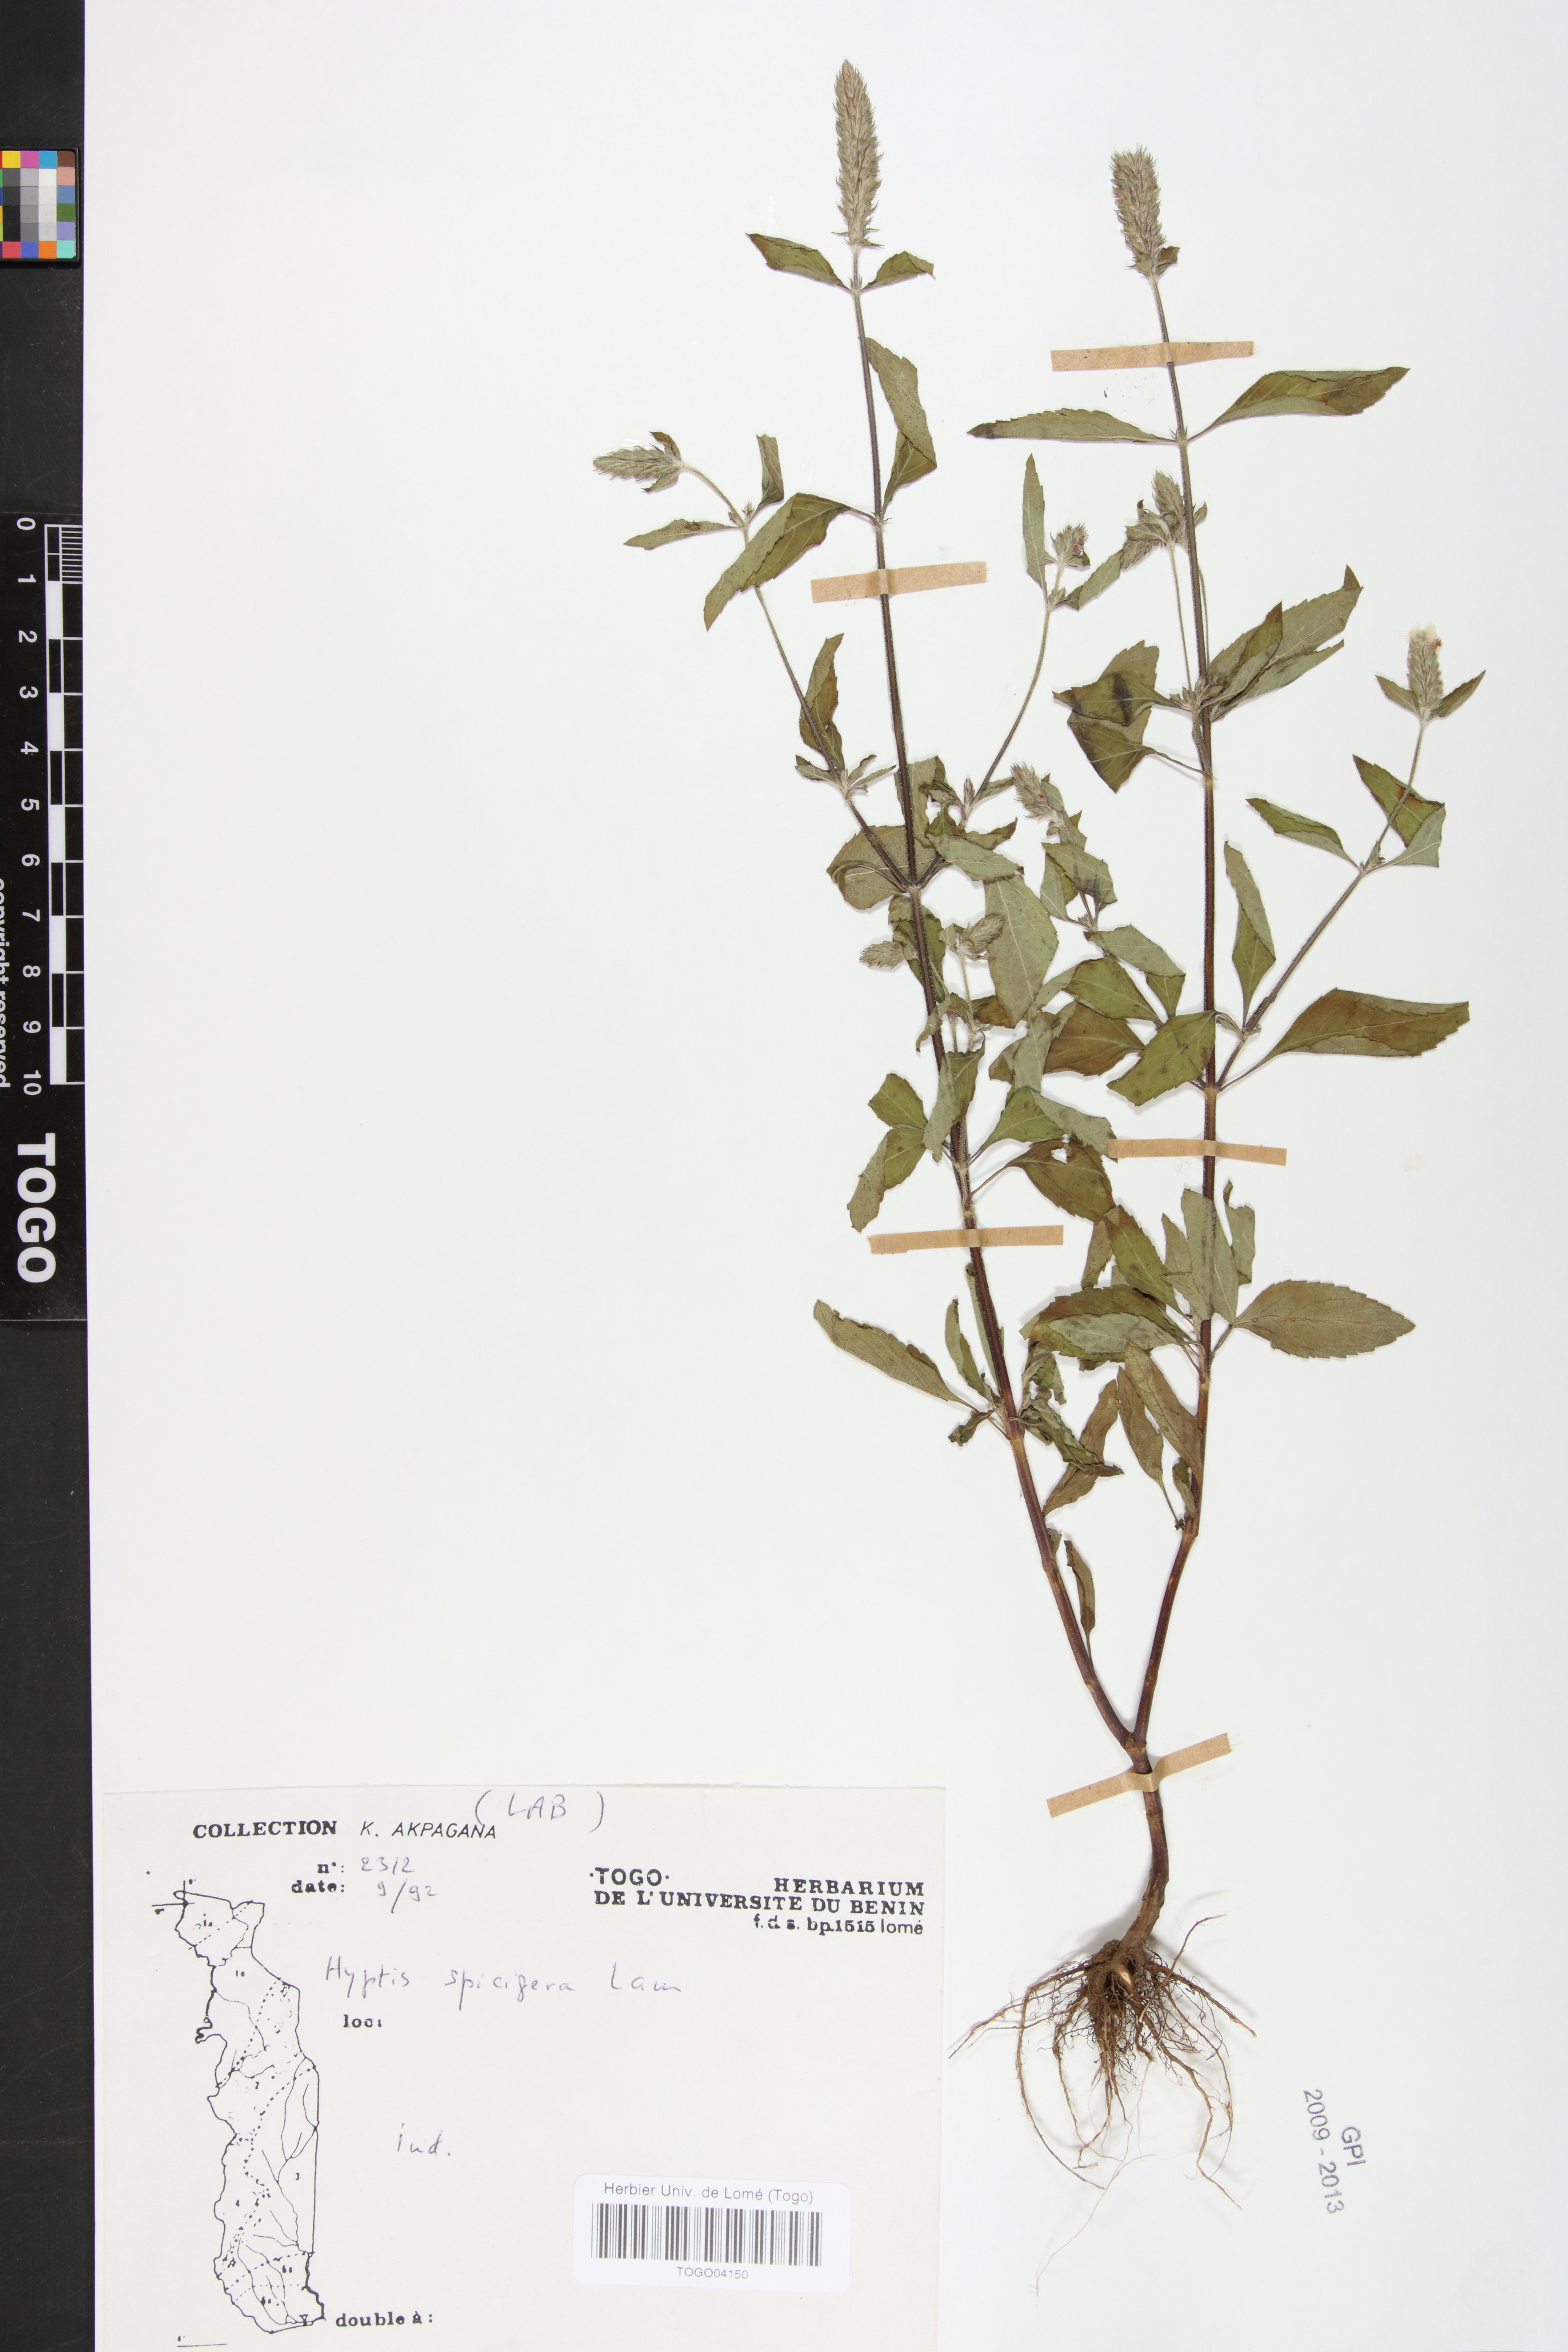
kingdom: Plantae
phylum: Tracheophyta
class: Magnoliopsida
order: Lamiales
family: Lamiaceae
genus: Cantinoa
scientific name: Cantinoa americana
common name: Black-sesame
